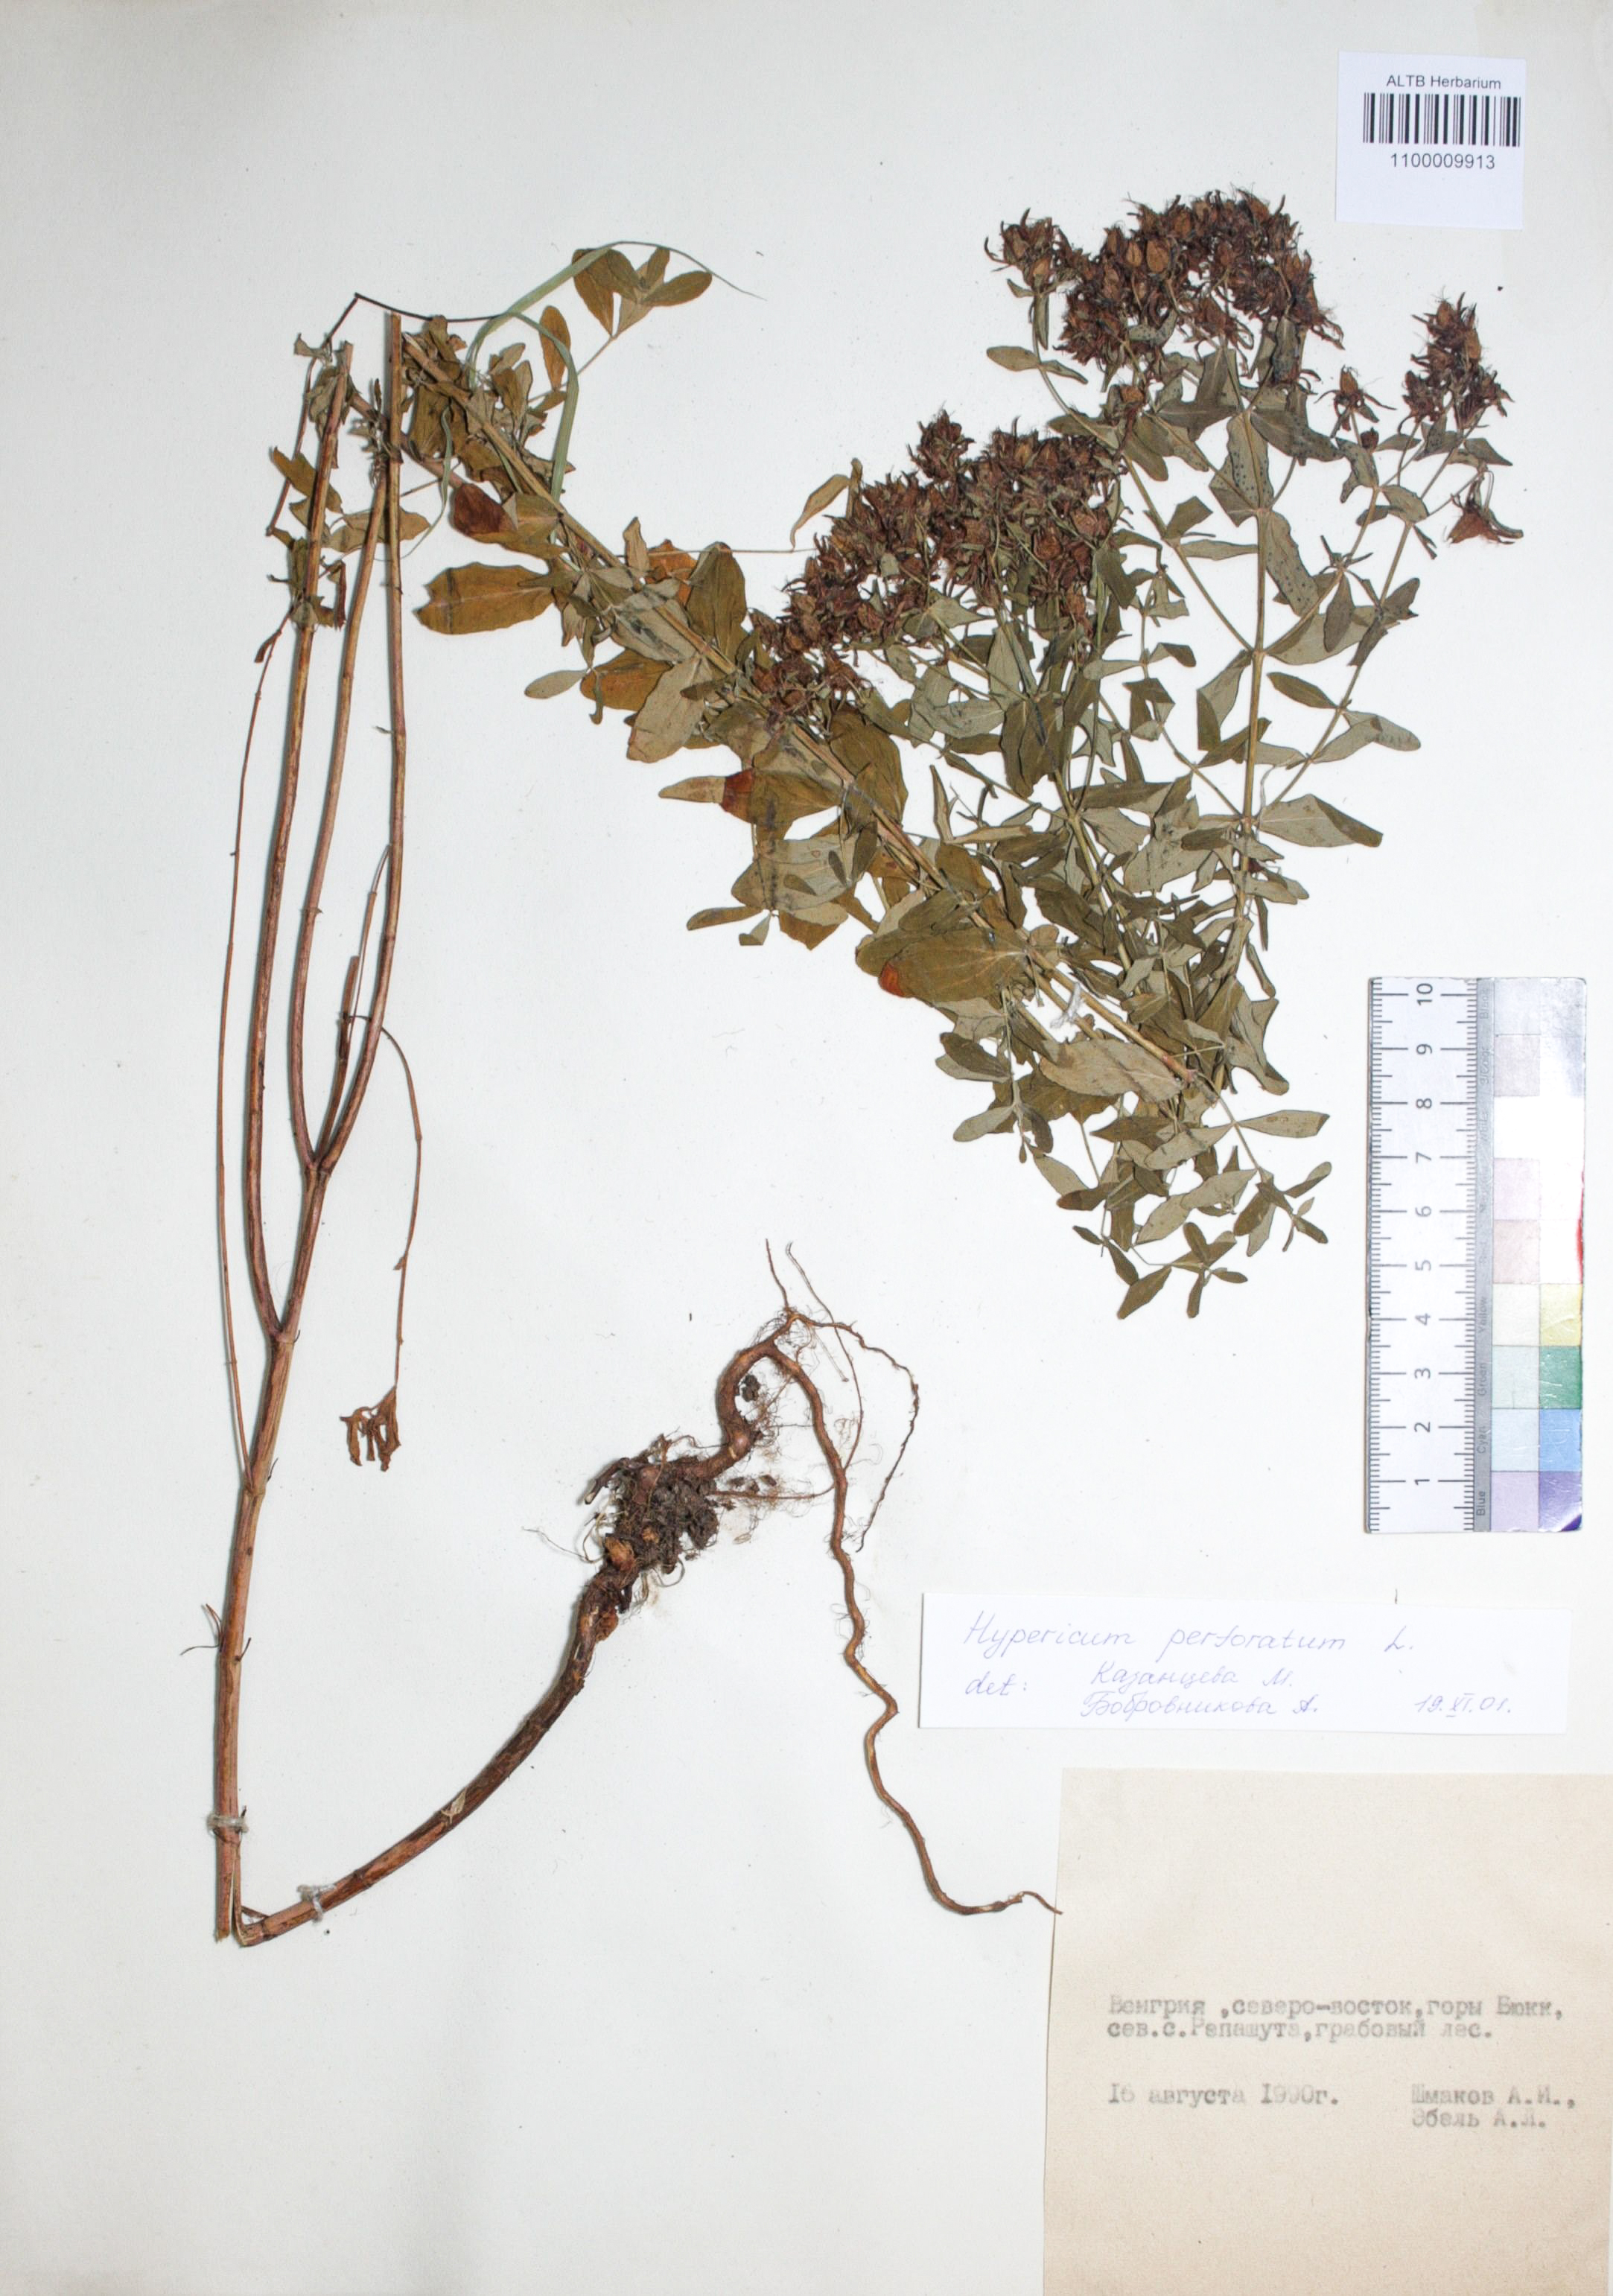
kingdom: Plantae
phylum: Tracheophyta
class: Magnoliopsida
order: Malpighiales
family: Hypericaceae
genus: Hypericum
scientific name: Hypericum perforatum
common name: Common st. johnswort
